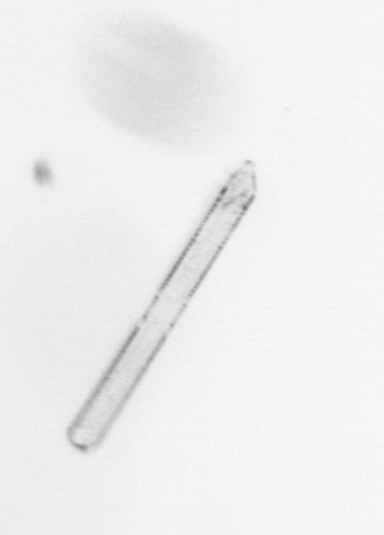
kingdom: Chromista
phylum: Ochrophyta
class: Bacillariophyceae
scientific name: Bacillariophyceae
